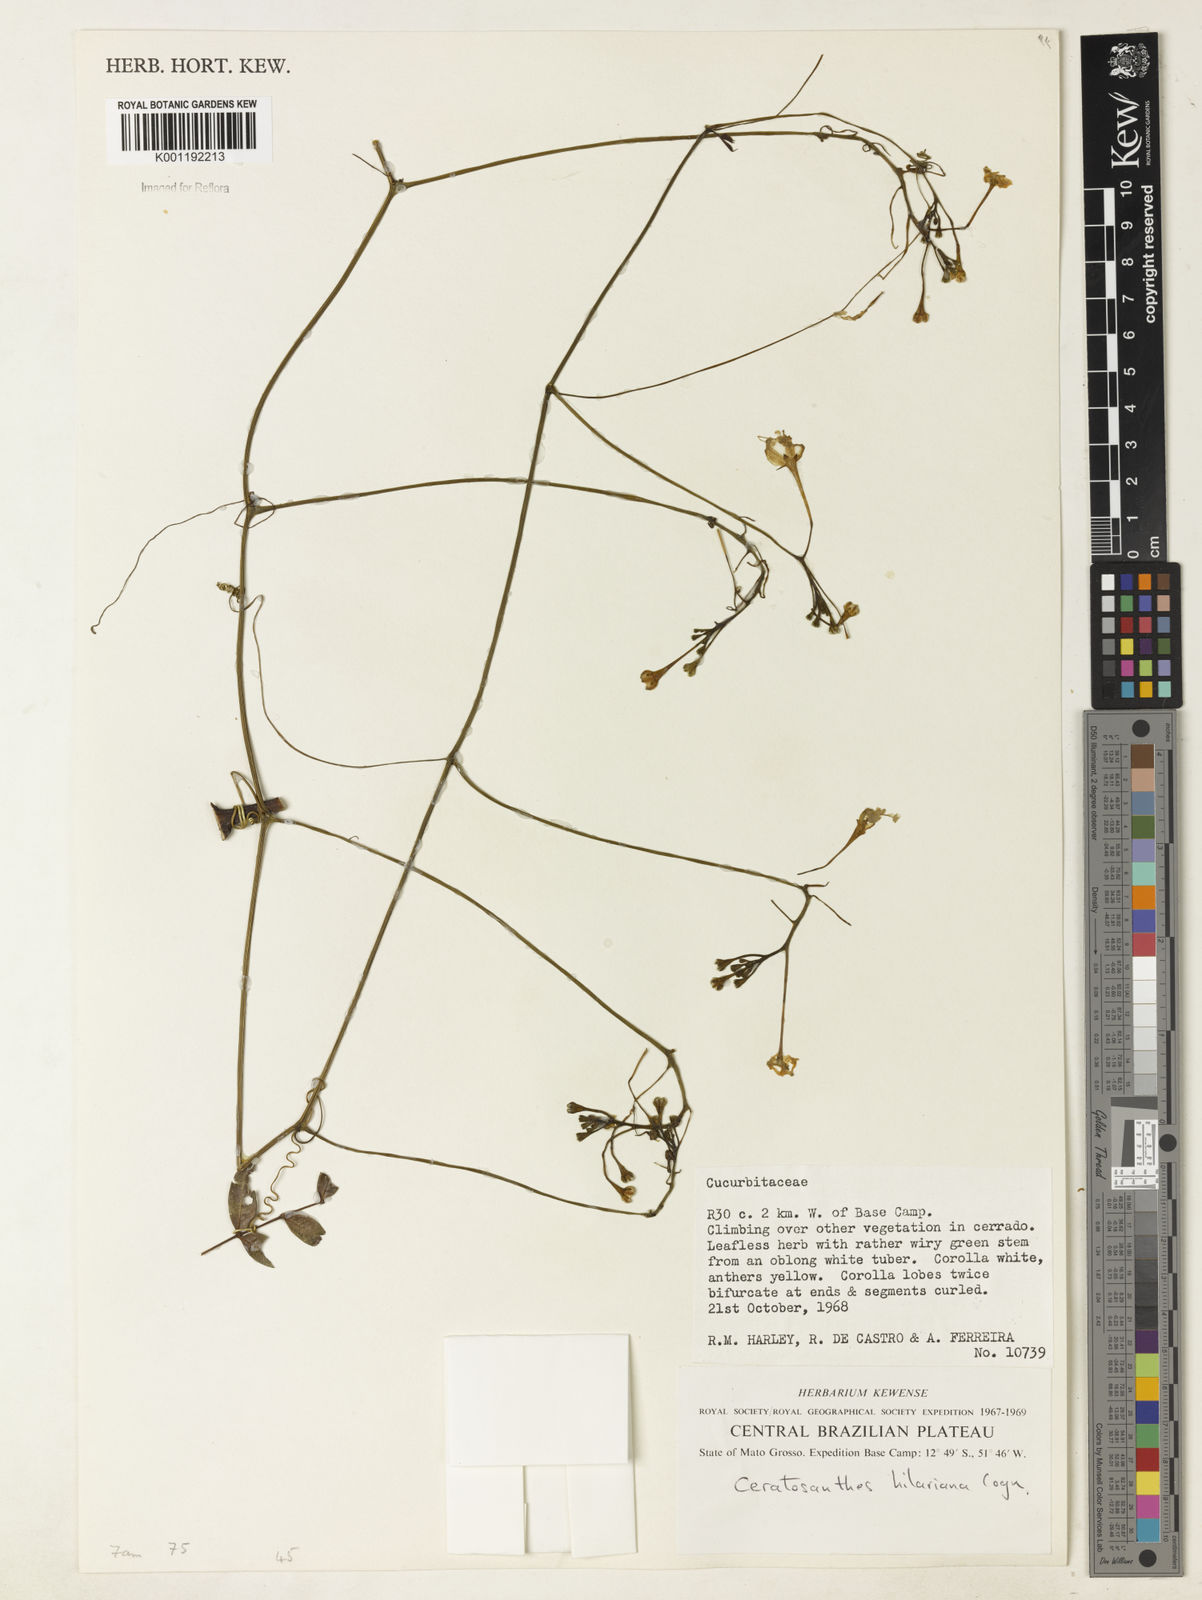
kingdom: Plantae
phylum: Tracheophyta
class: Magnoliopsida
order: Cucurbitales
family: Cucurbitaceae
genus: Ceratosanthes
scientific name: Ceratosanthes hilariana
